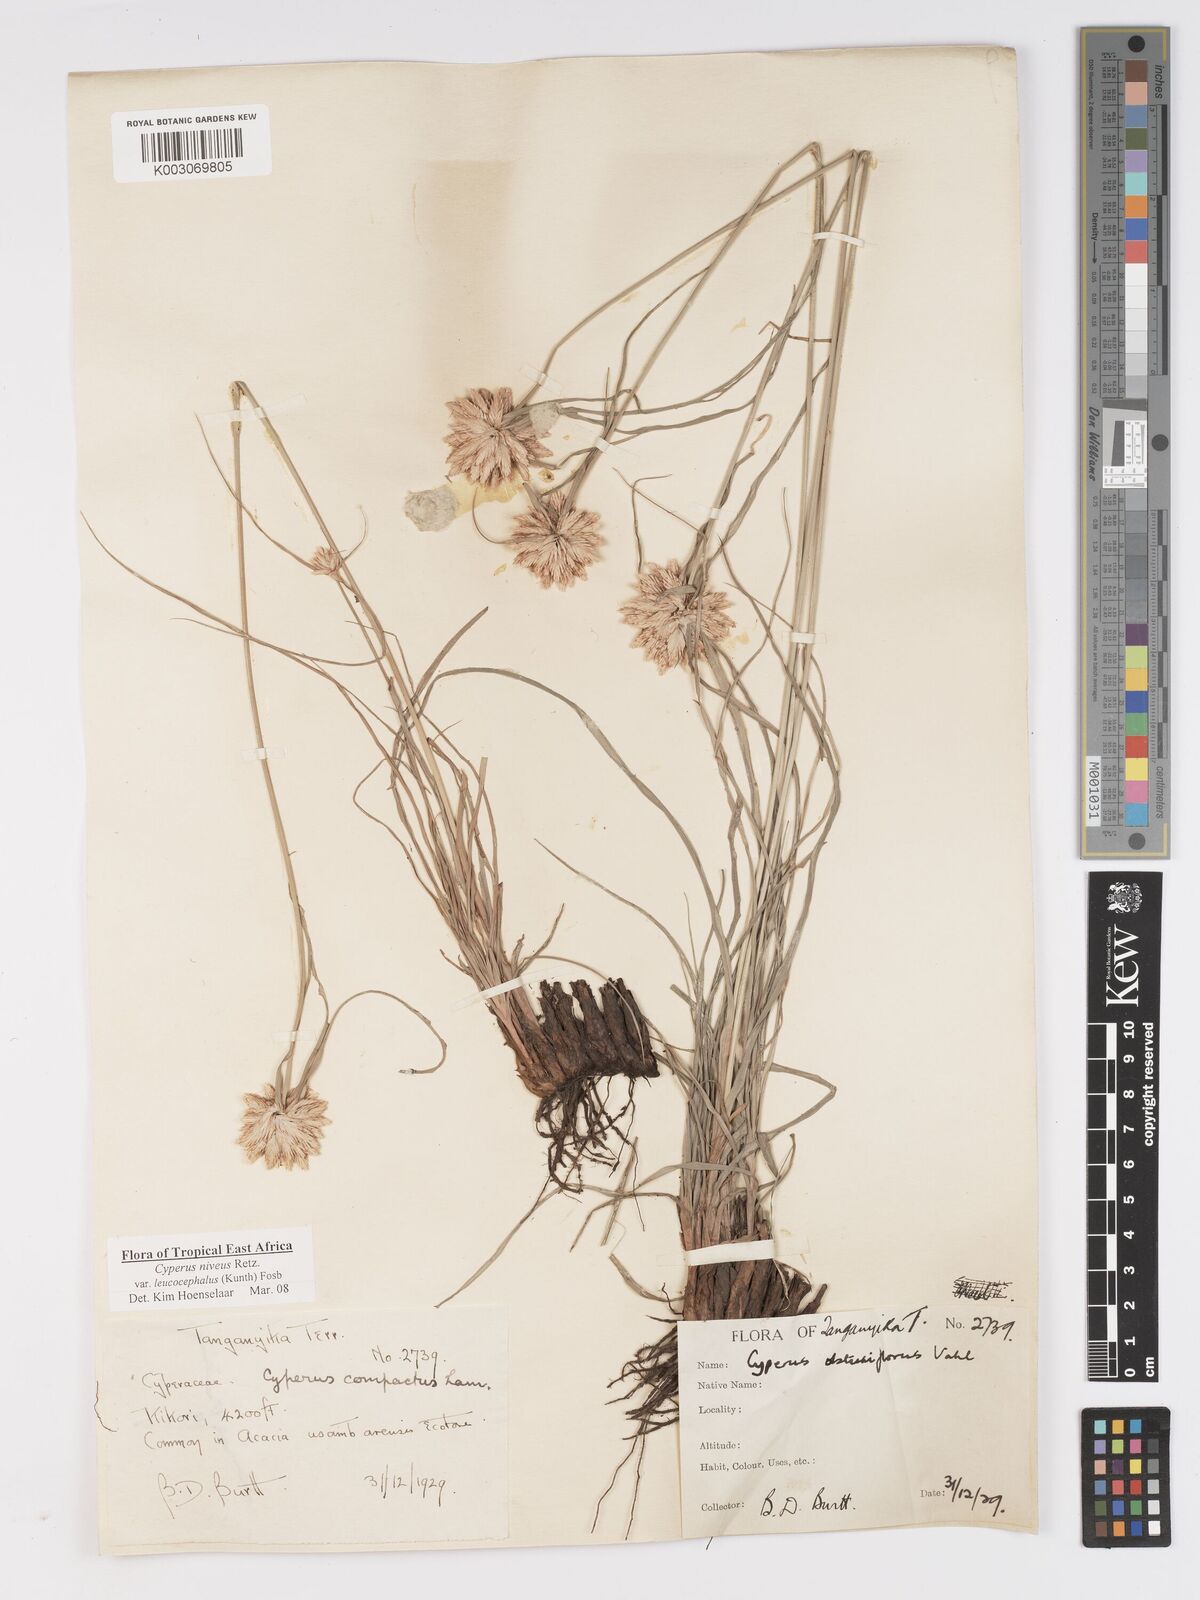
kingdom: Plantae
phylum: Tracheophyta
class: Liliopsida
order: Poales
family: Cyperaceae
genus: Cyperus
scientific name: Cyperus niveus
